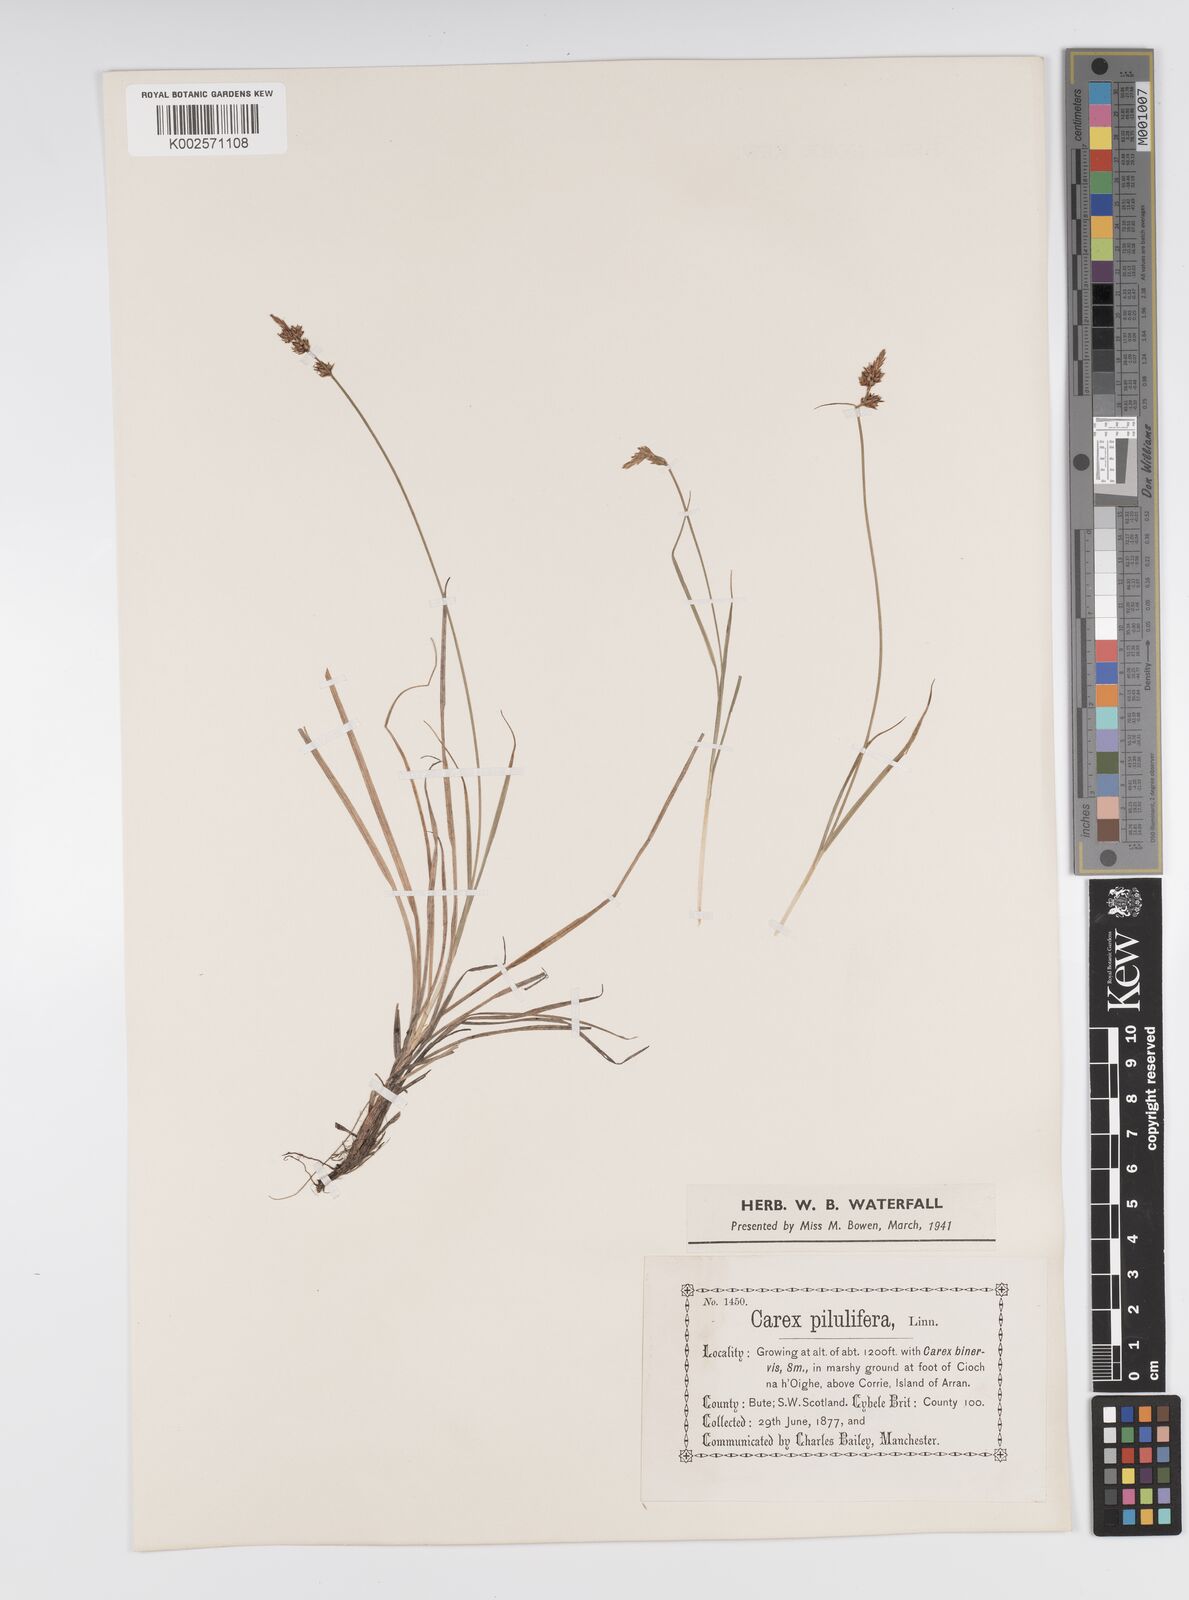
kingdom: Plantae
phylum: Tracheophyta
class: Liliopsida
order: Poales
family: Cyperaceae
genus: Carex
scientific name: Carex pilulifera
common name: Pill sedge
